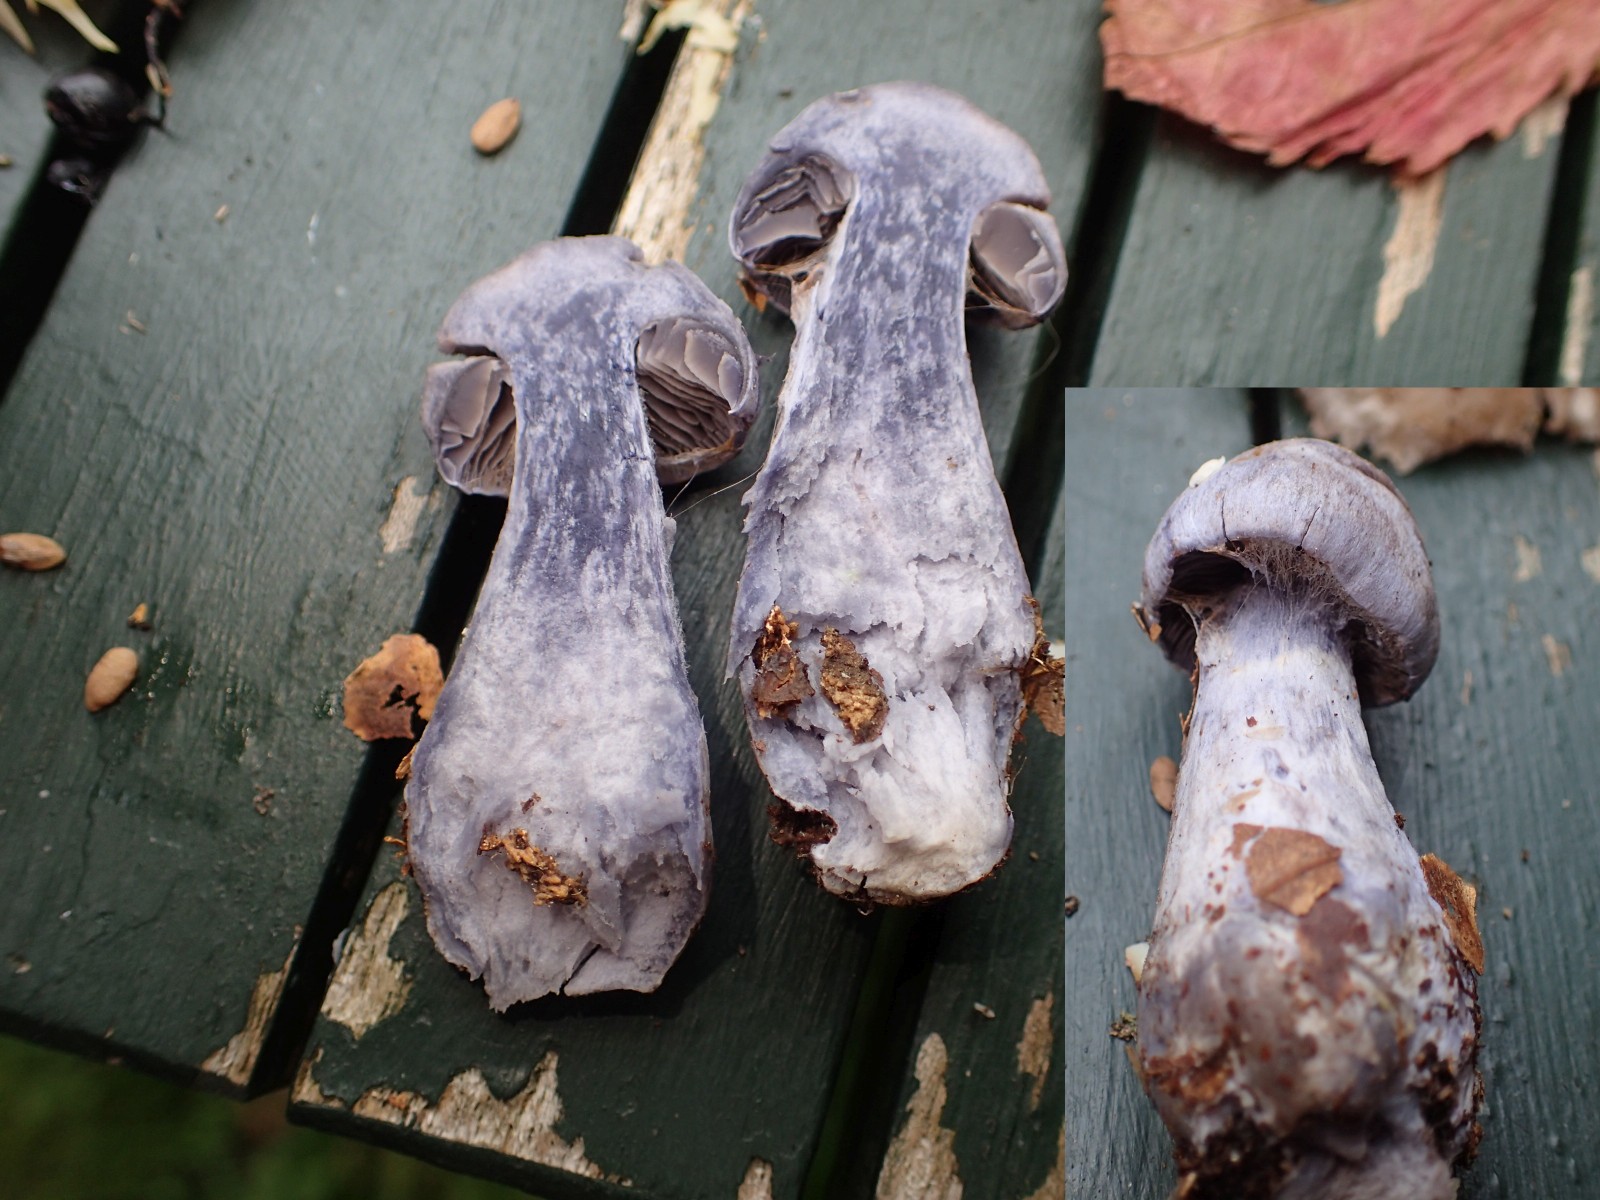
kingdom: Fungi
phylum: Basidiomycota
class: Agaricomycetes
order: Agaricales
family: Cortinariaceae
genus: Cortinarius
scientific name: Cortinarius
